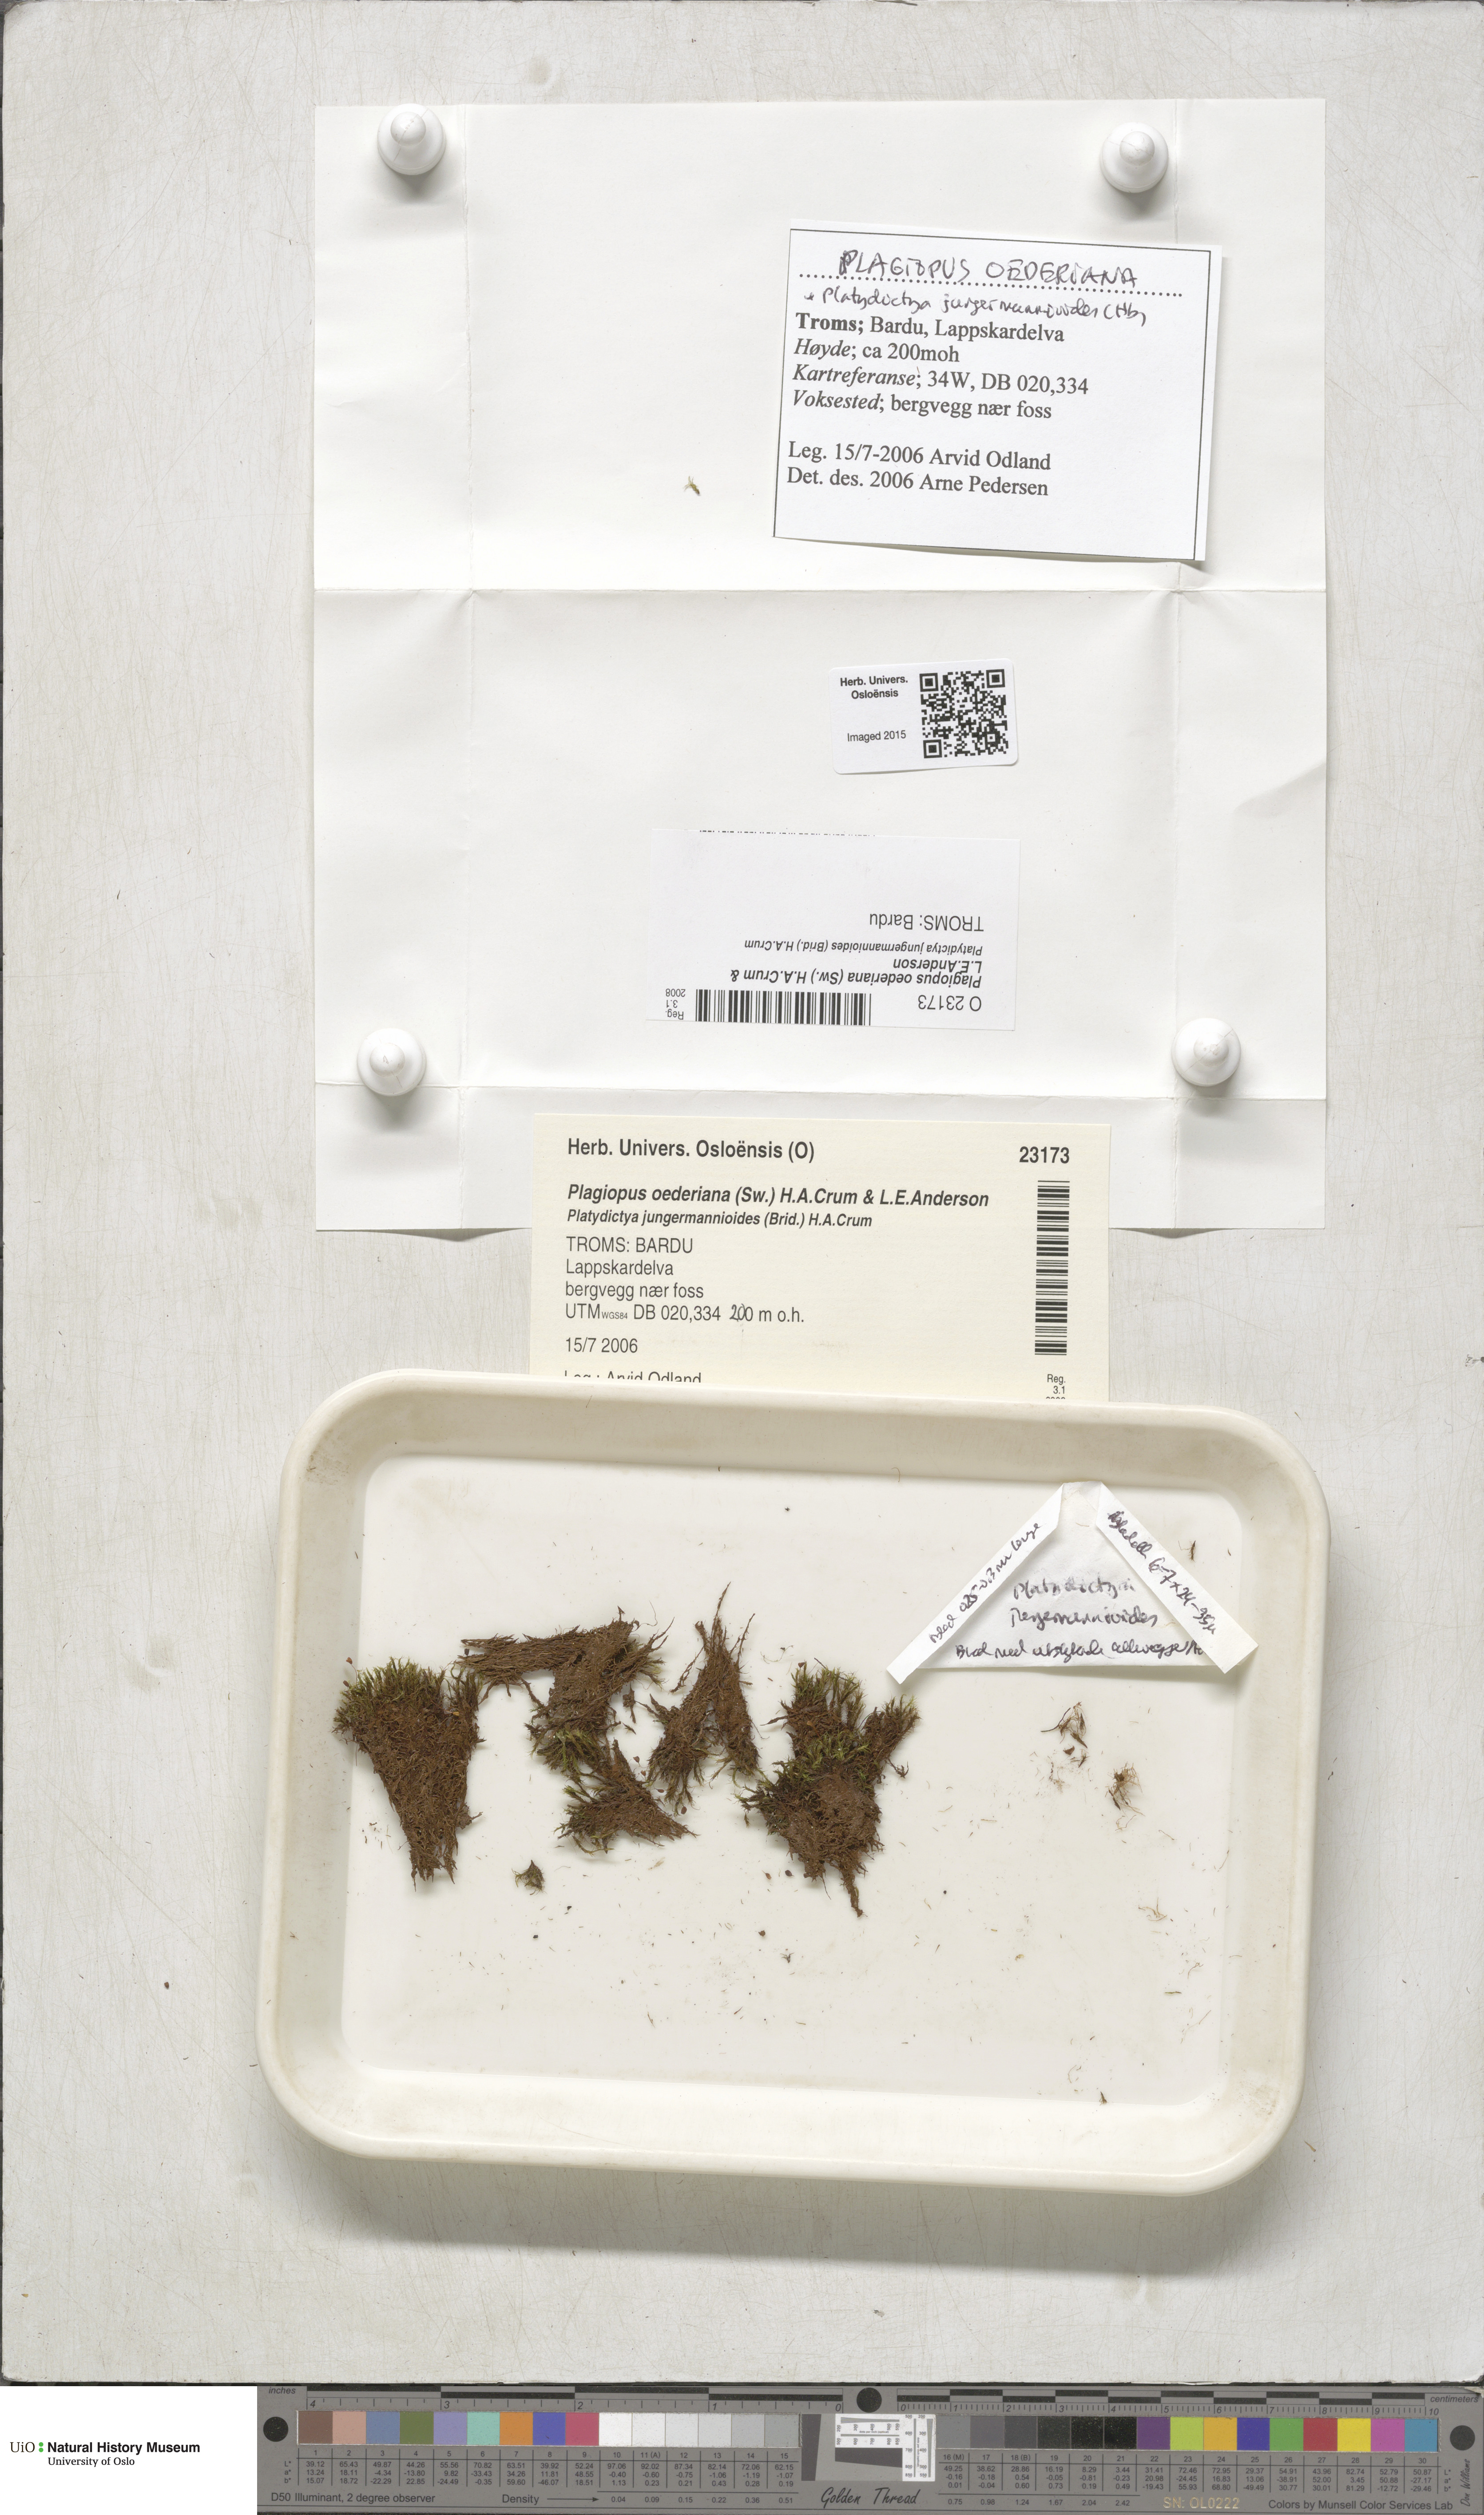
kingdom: Plantae
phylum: Bryophyta
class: Bryopsida
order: Bartramiales
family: Bartramiaceae
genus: Plagiopus
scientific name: Plagiopus oederianus
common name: Oeder's apple moss
